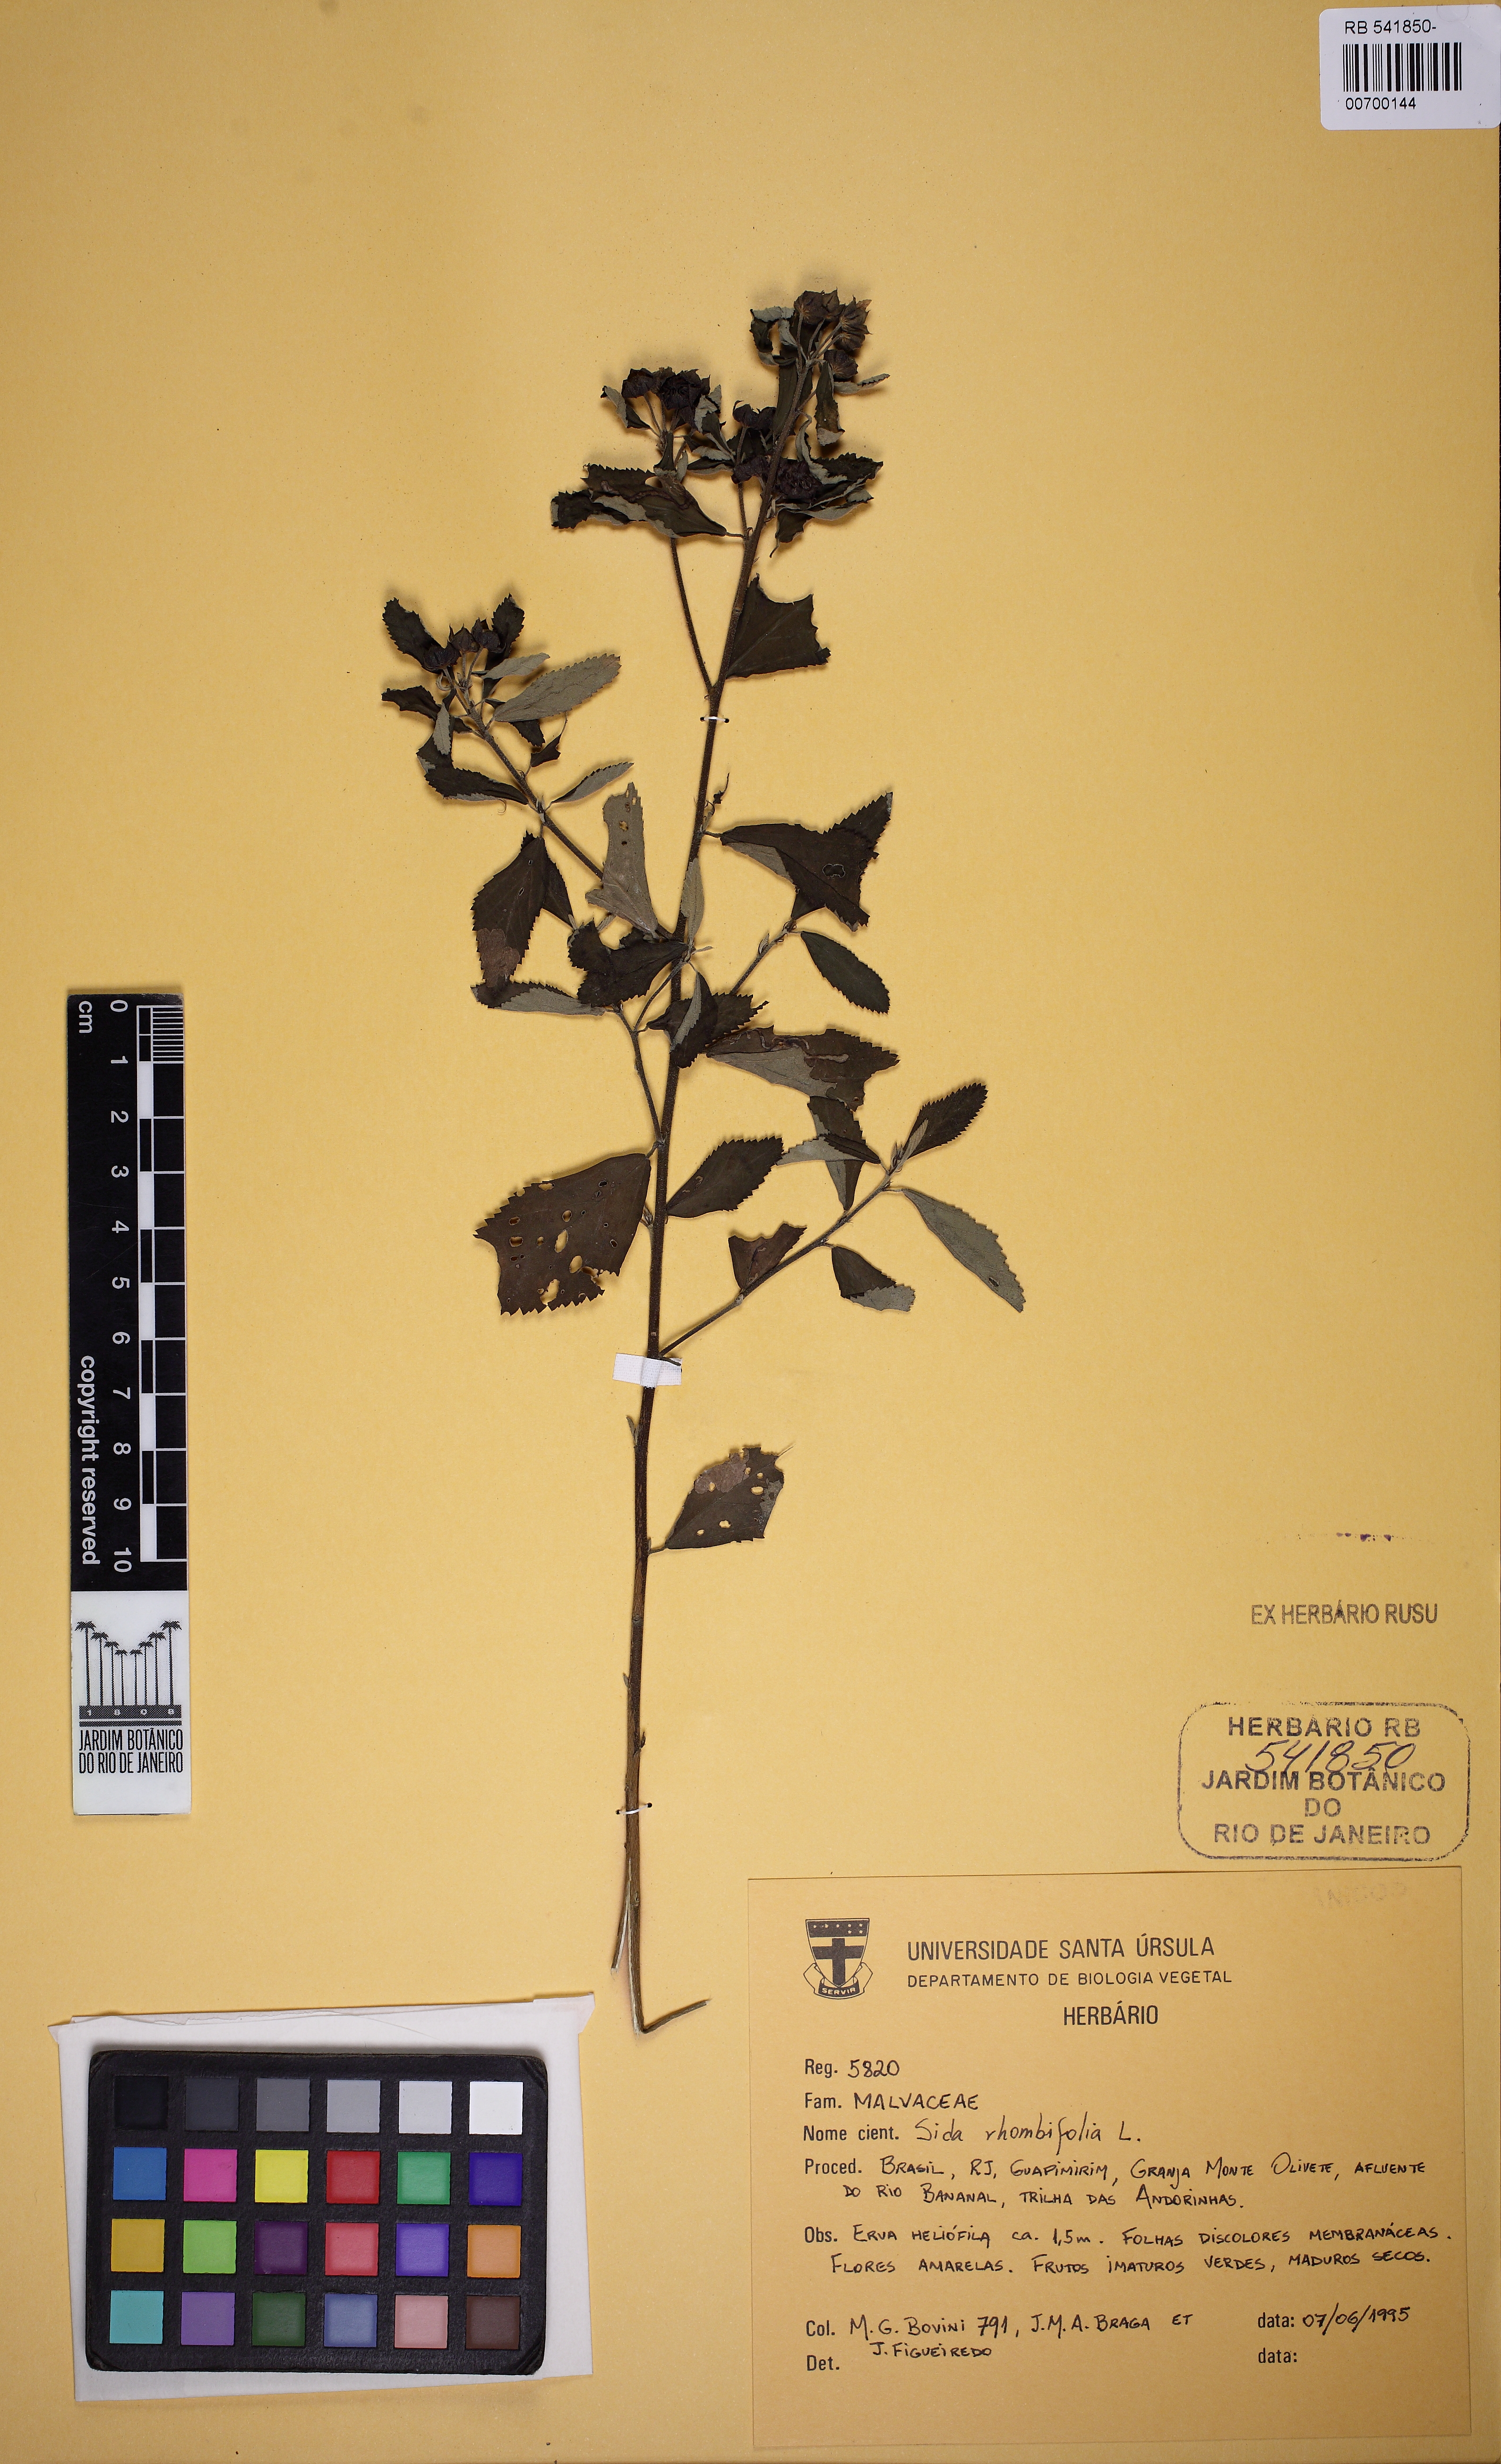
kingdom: Plantae
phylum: Tracheophyta
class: Magnoliopsida
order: Malvales
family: Malvaceae
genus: Sida
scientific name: Sida rhombifolia
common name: Queensland-hemp
